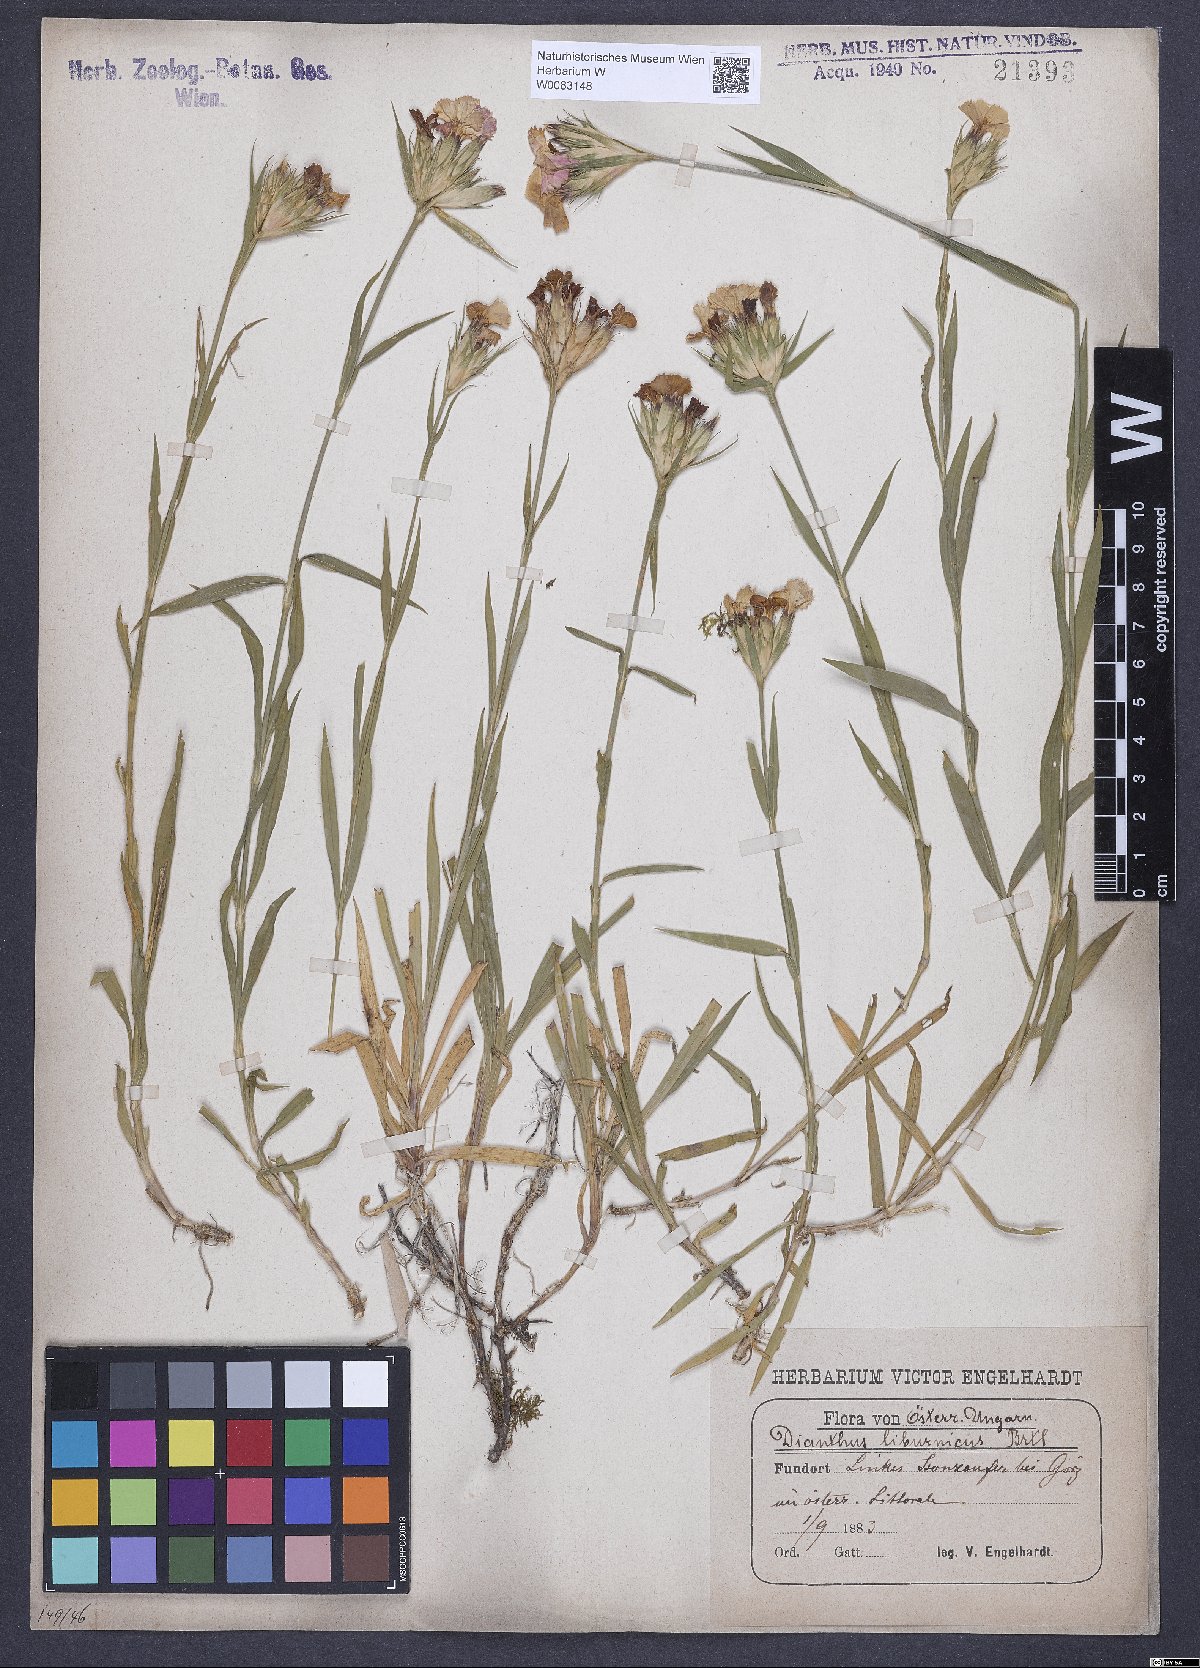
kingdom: Plantae
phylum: Tracheophyta
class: Magnoliopsida
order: Caryophyllales
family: Caryophyllaceae
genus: Dianthus
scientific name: Dianthus balbisii
